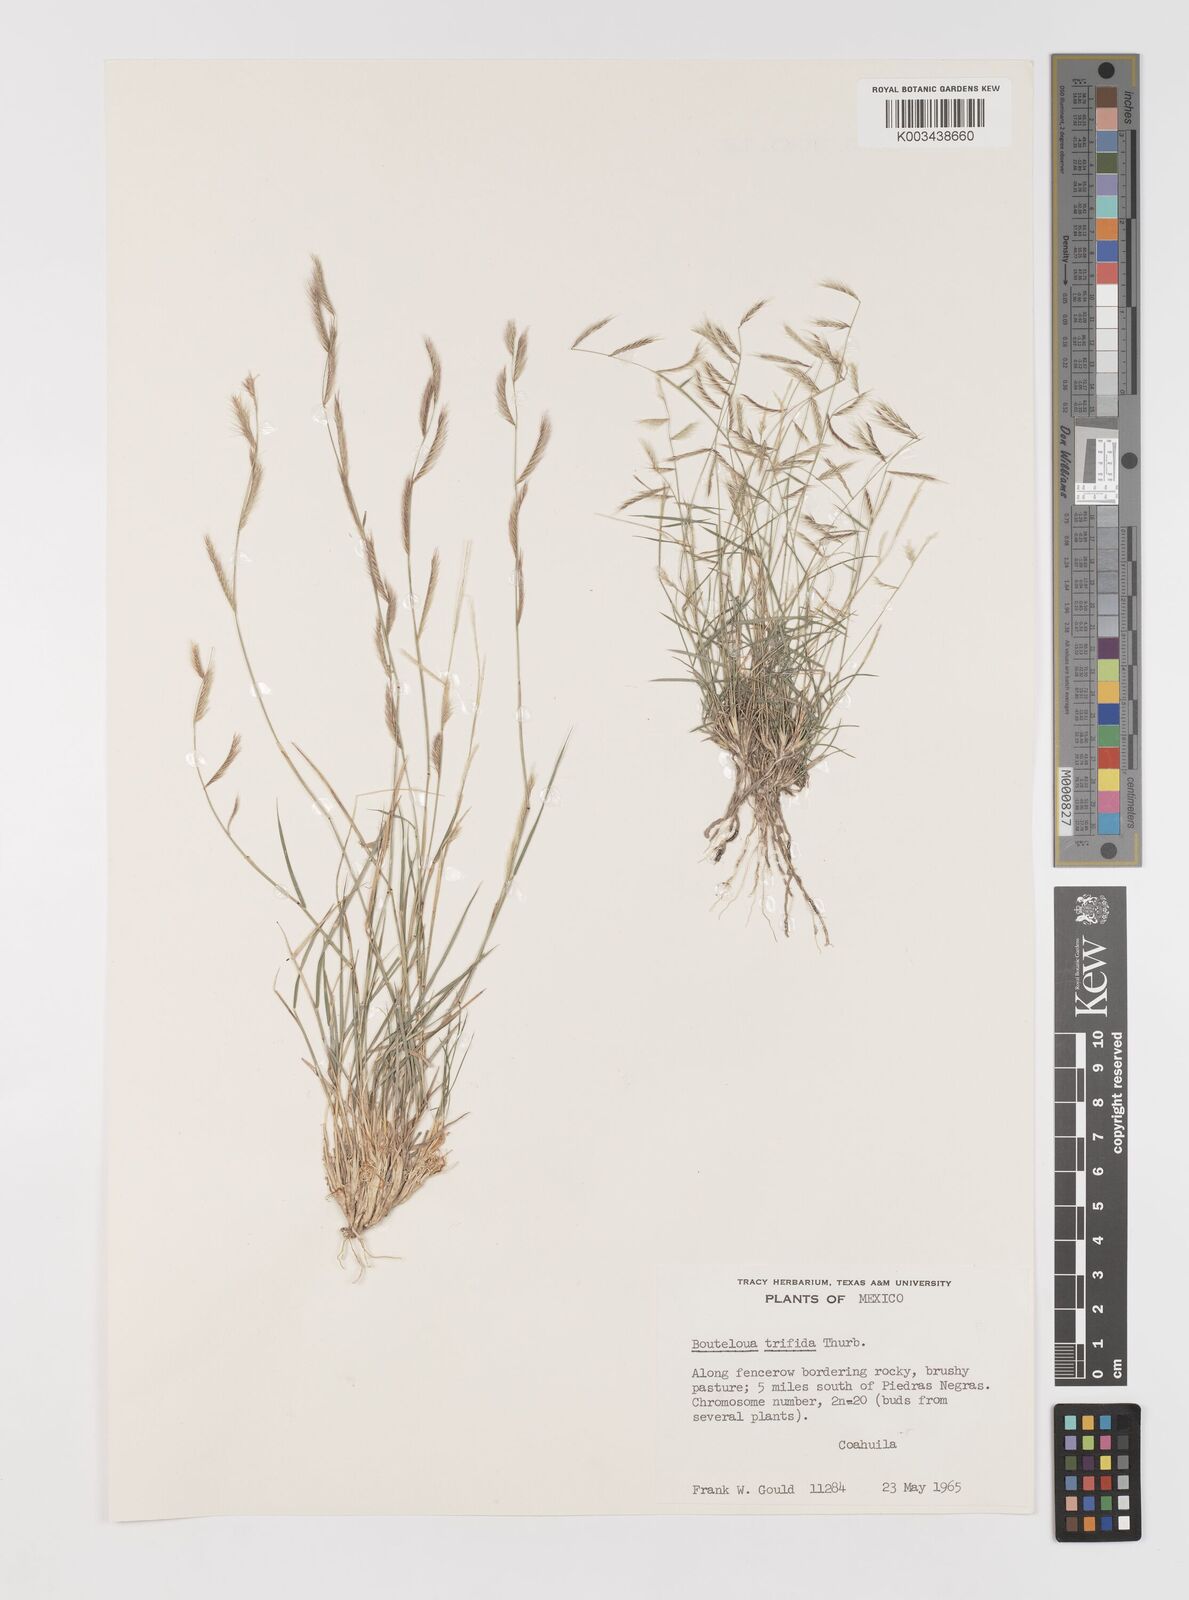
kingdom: Plantae
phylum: Tracheophyta
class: Liliopsida
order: Poales
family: Poaceae
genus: Bouteloua
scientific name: Bouteloua
